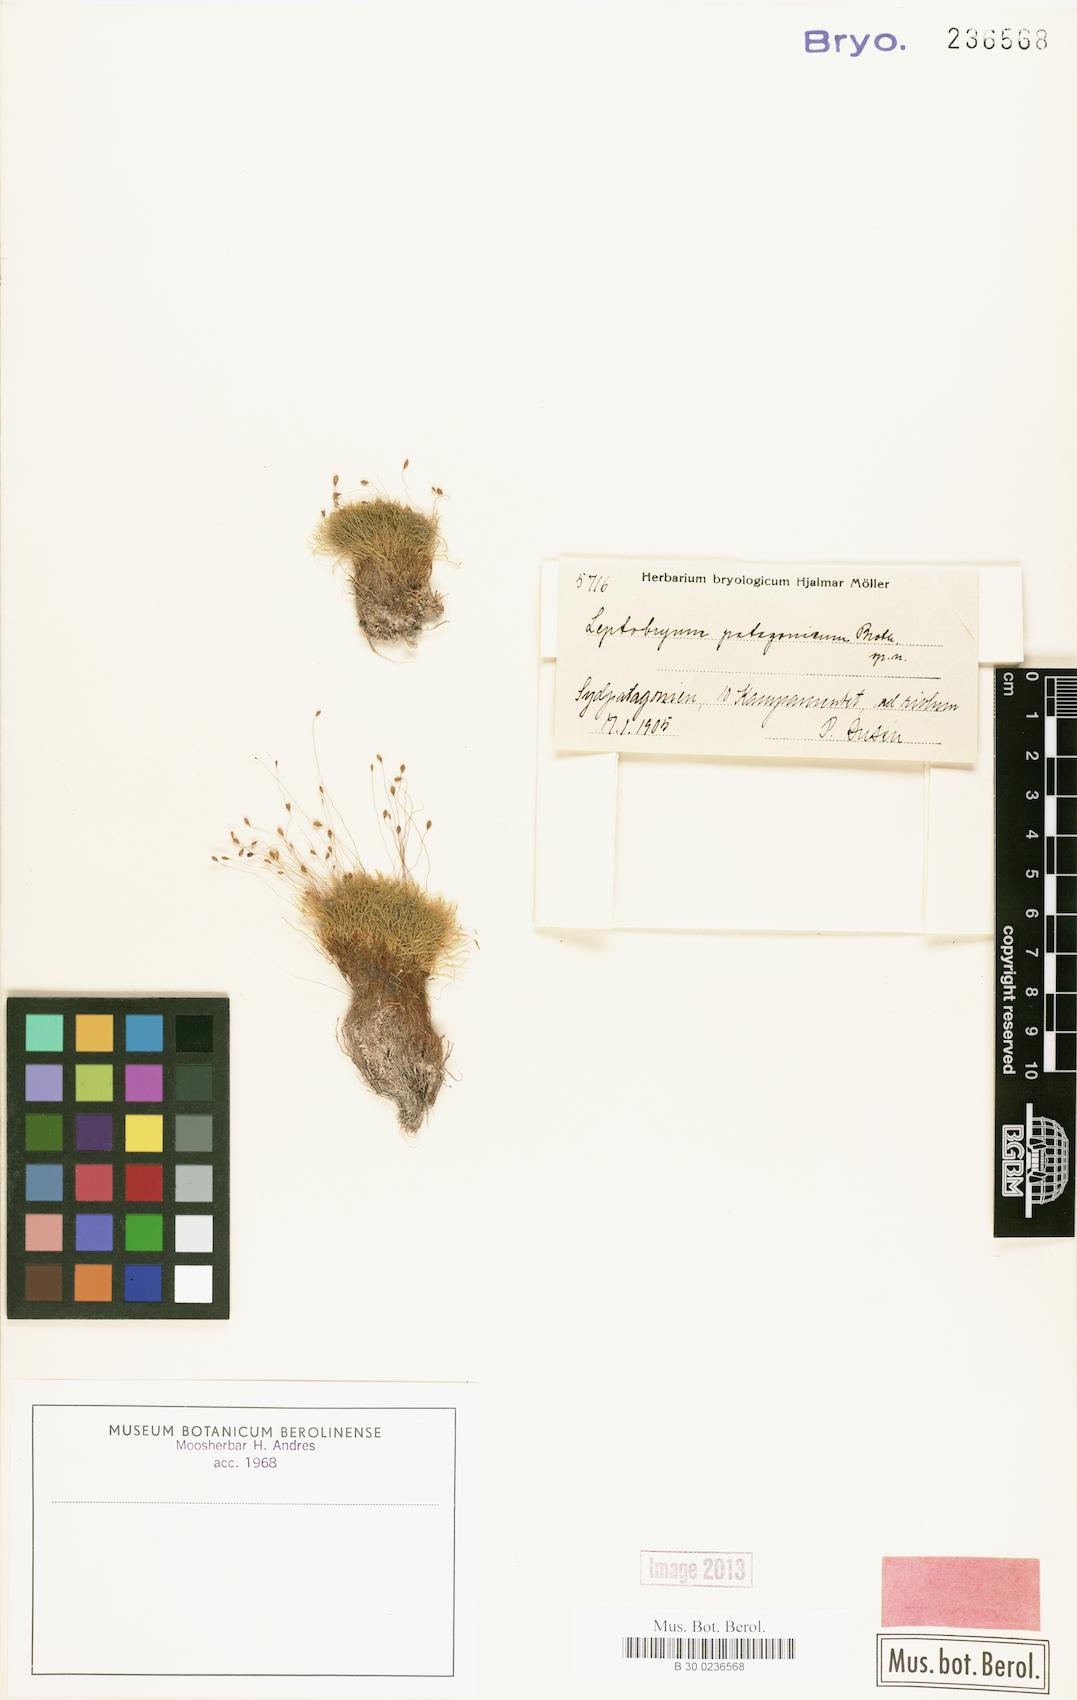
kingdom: Plantae
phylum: Bryophyta
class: Bryopsida
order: Bryales
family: Bryaceae
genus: Leptobryum
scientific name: Leptobryum
